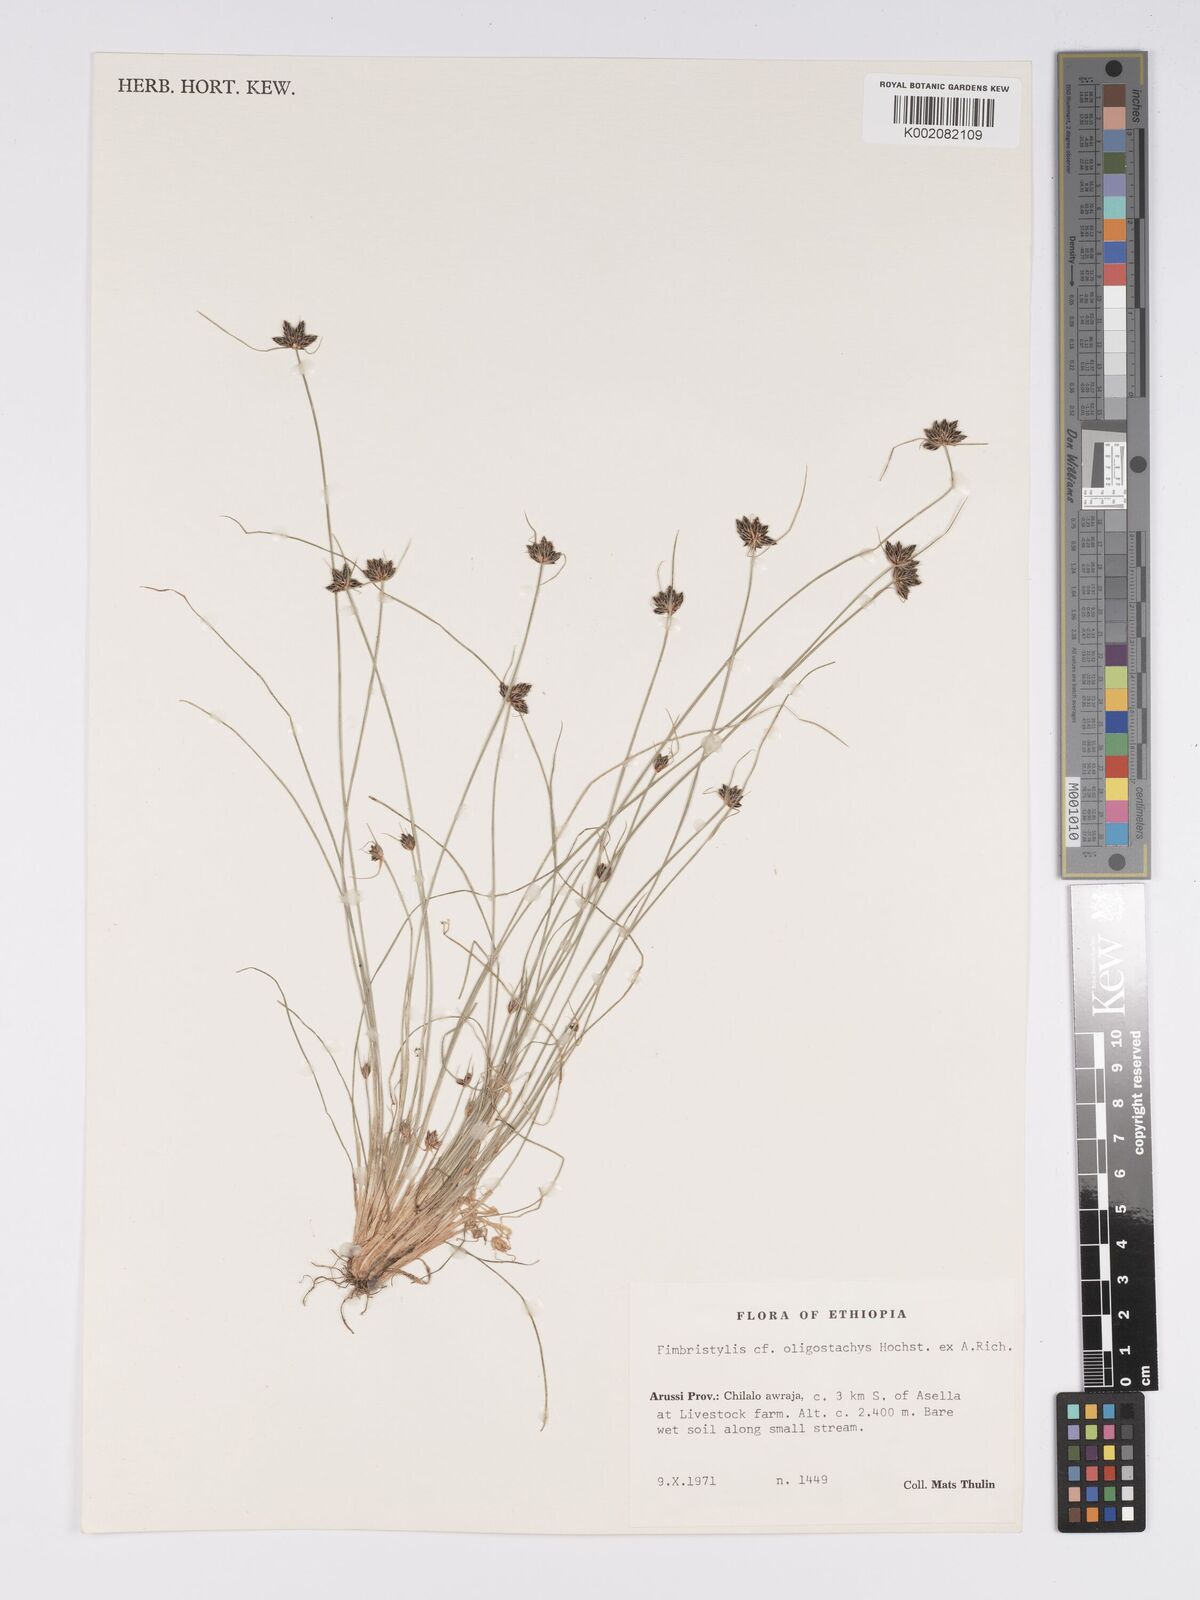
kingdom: Plantae
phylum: Tracheophyta
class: Liliopsida
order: Poales
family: Cyperaceae
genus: Bulbostylis
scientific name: Bulbostylis hispidula
